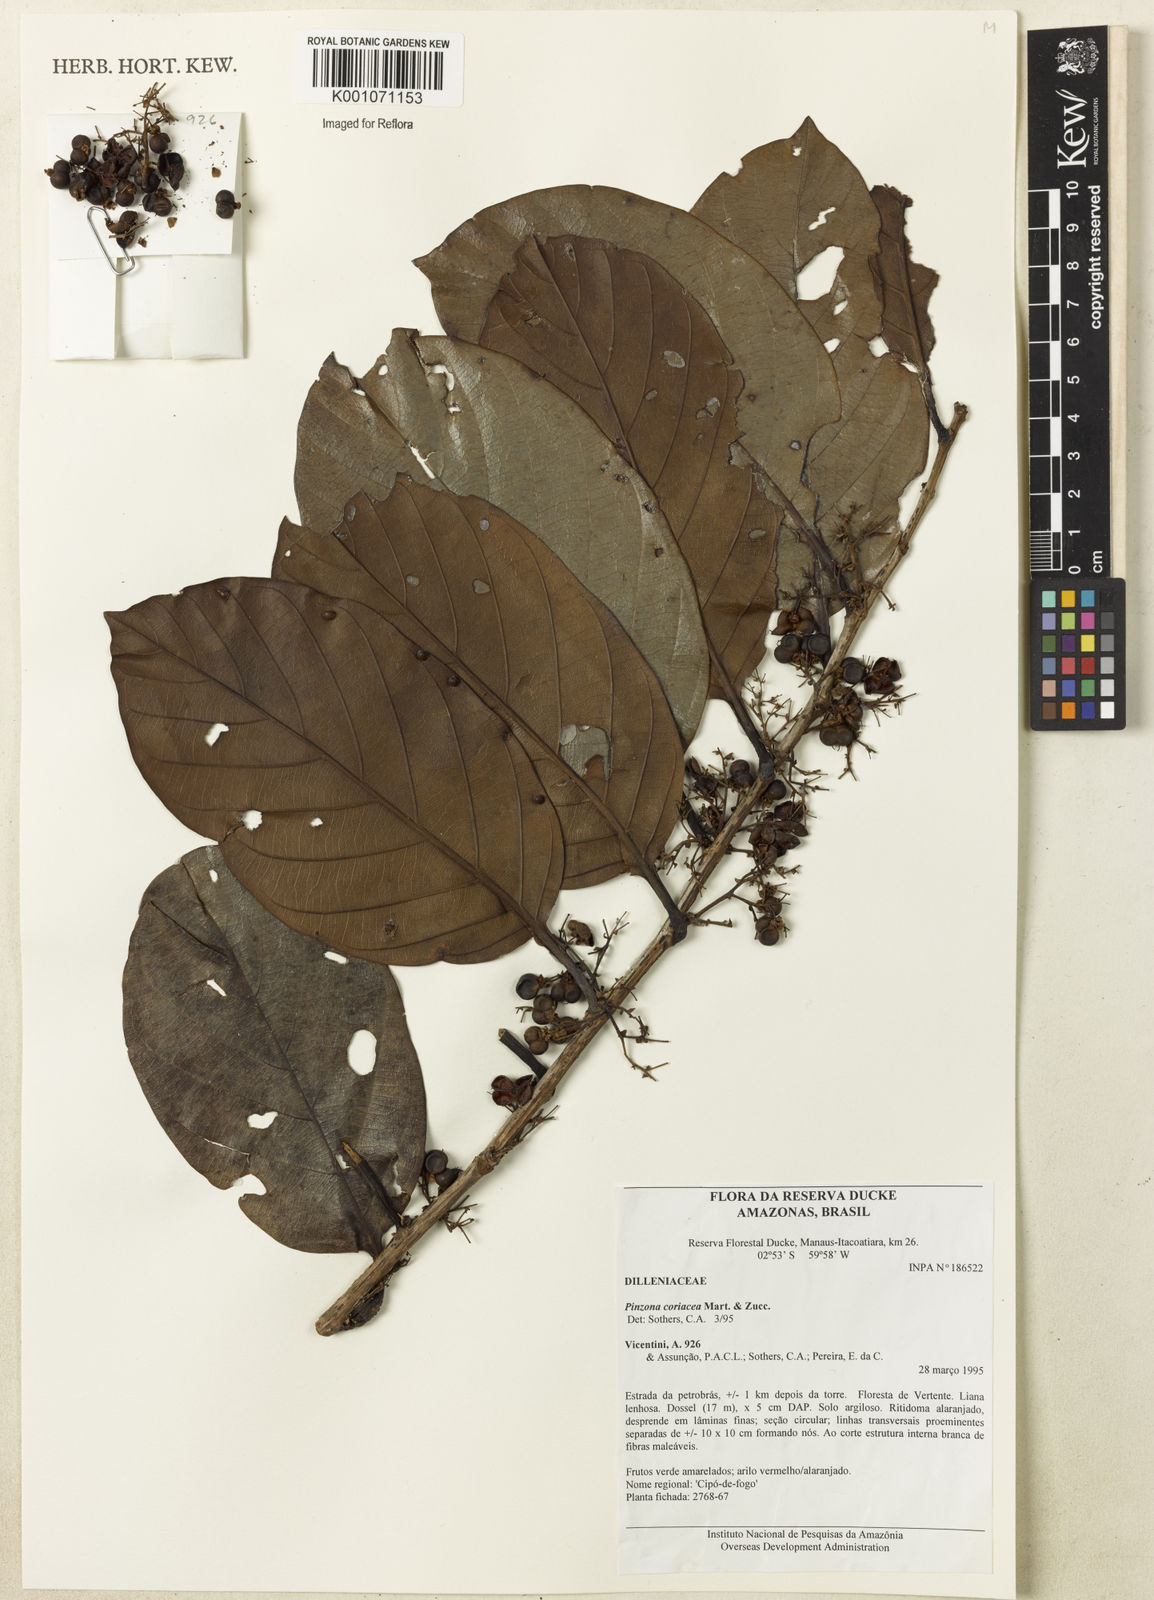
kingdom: Plantae
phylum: Tracheophyta
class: Magnoliopsida
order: Dilleniales
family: Dilleniaceae
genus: Pinzona
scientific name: Pinzona coriacea
